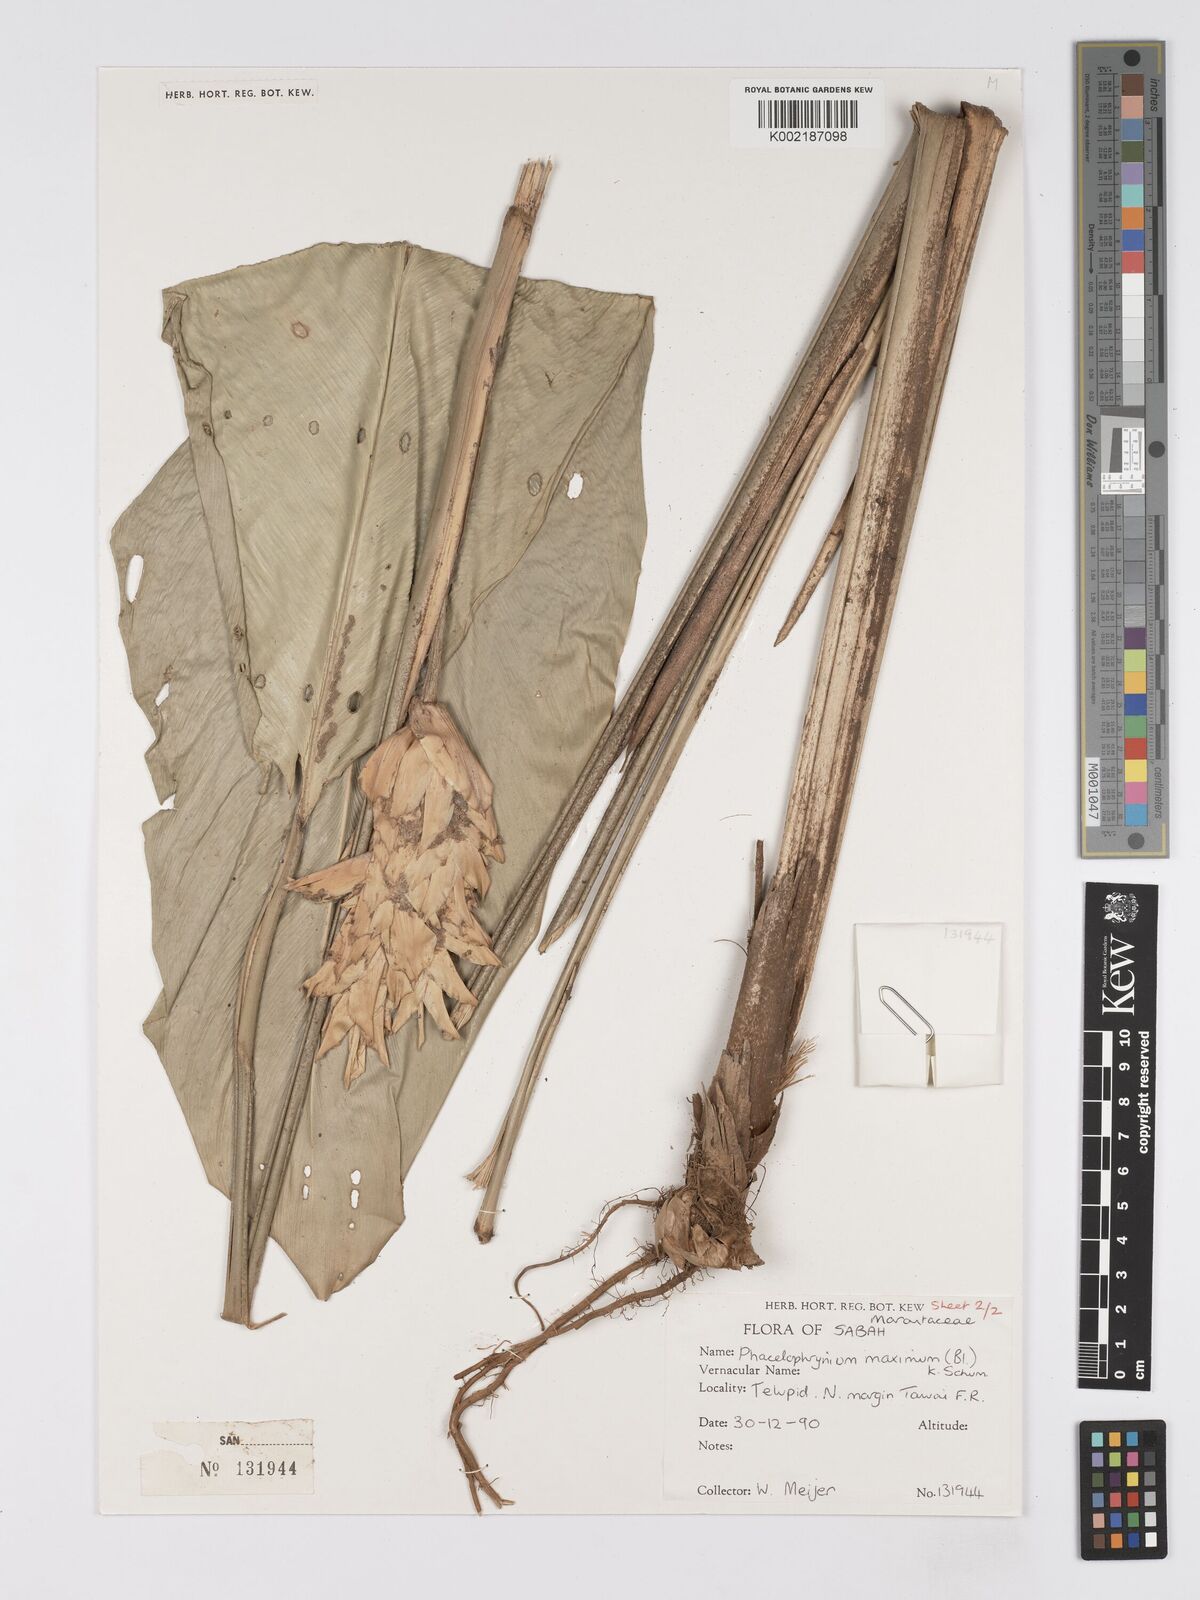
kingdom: Plantae
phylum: Tracheophyta
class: Liliopsida
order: Zingiberales
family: Marantaceae
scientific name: Marantaceae
